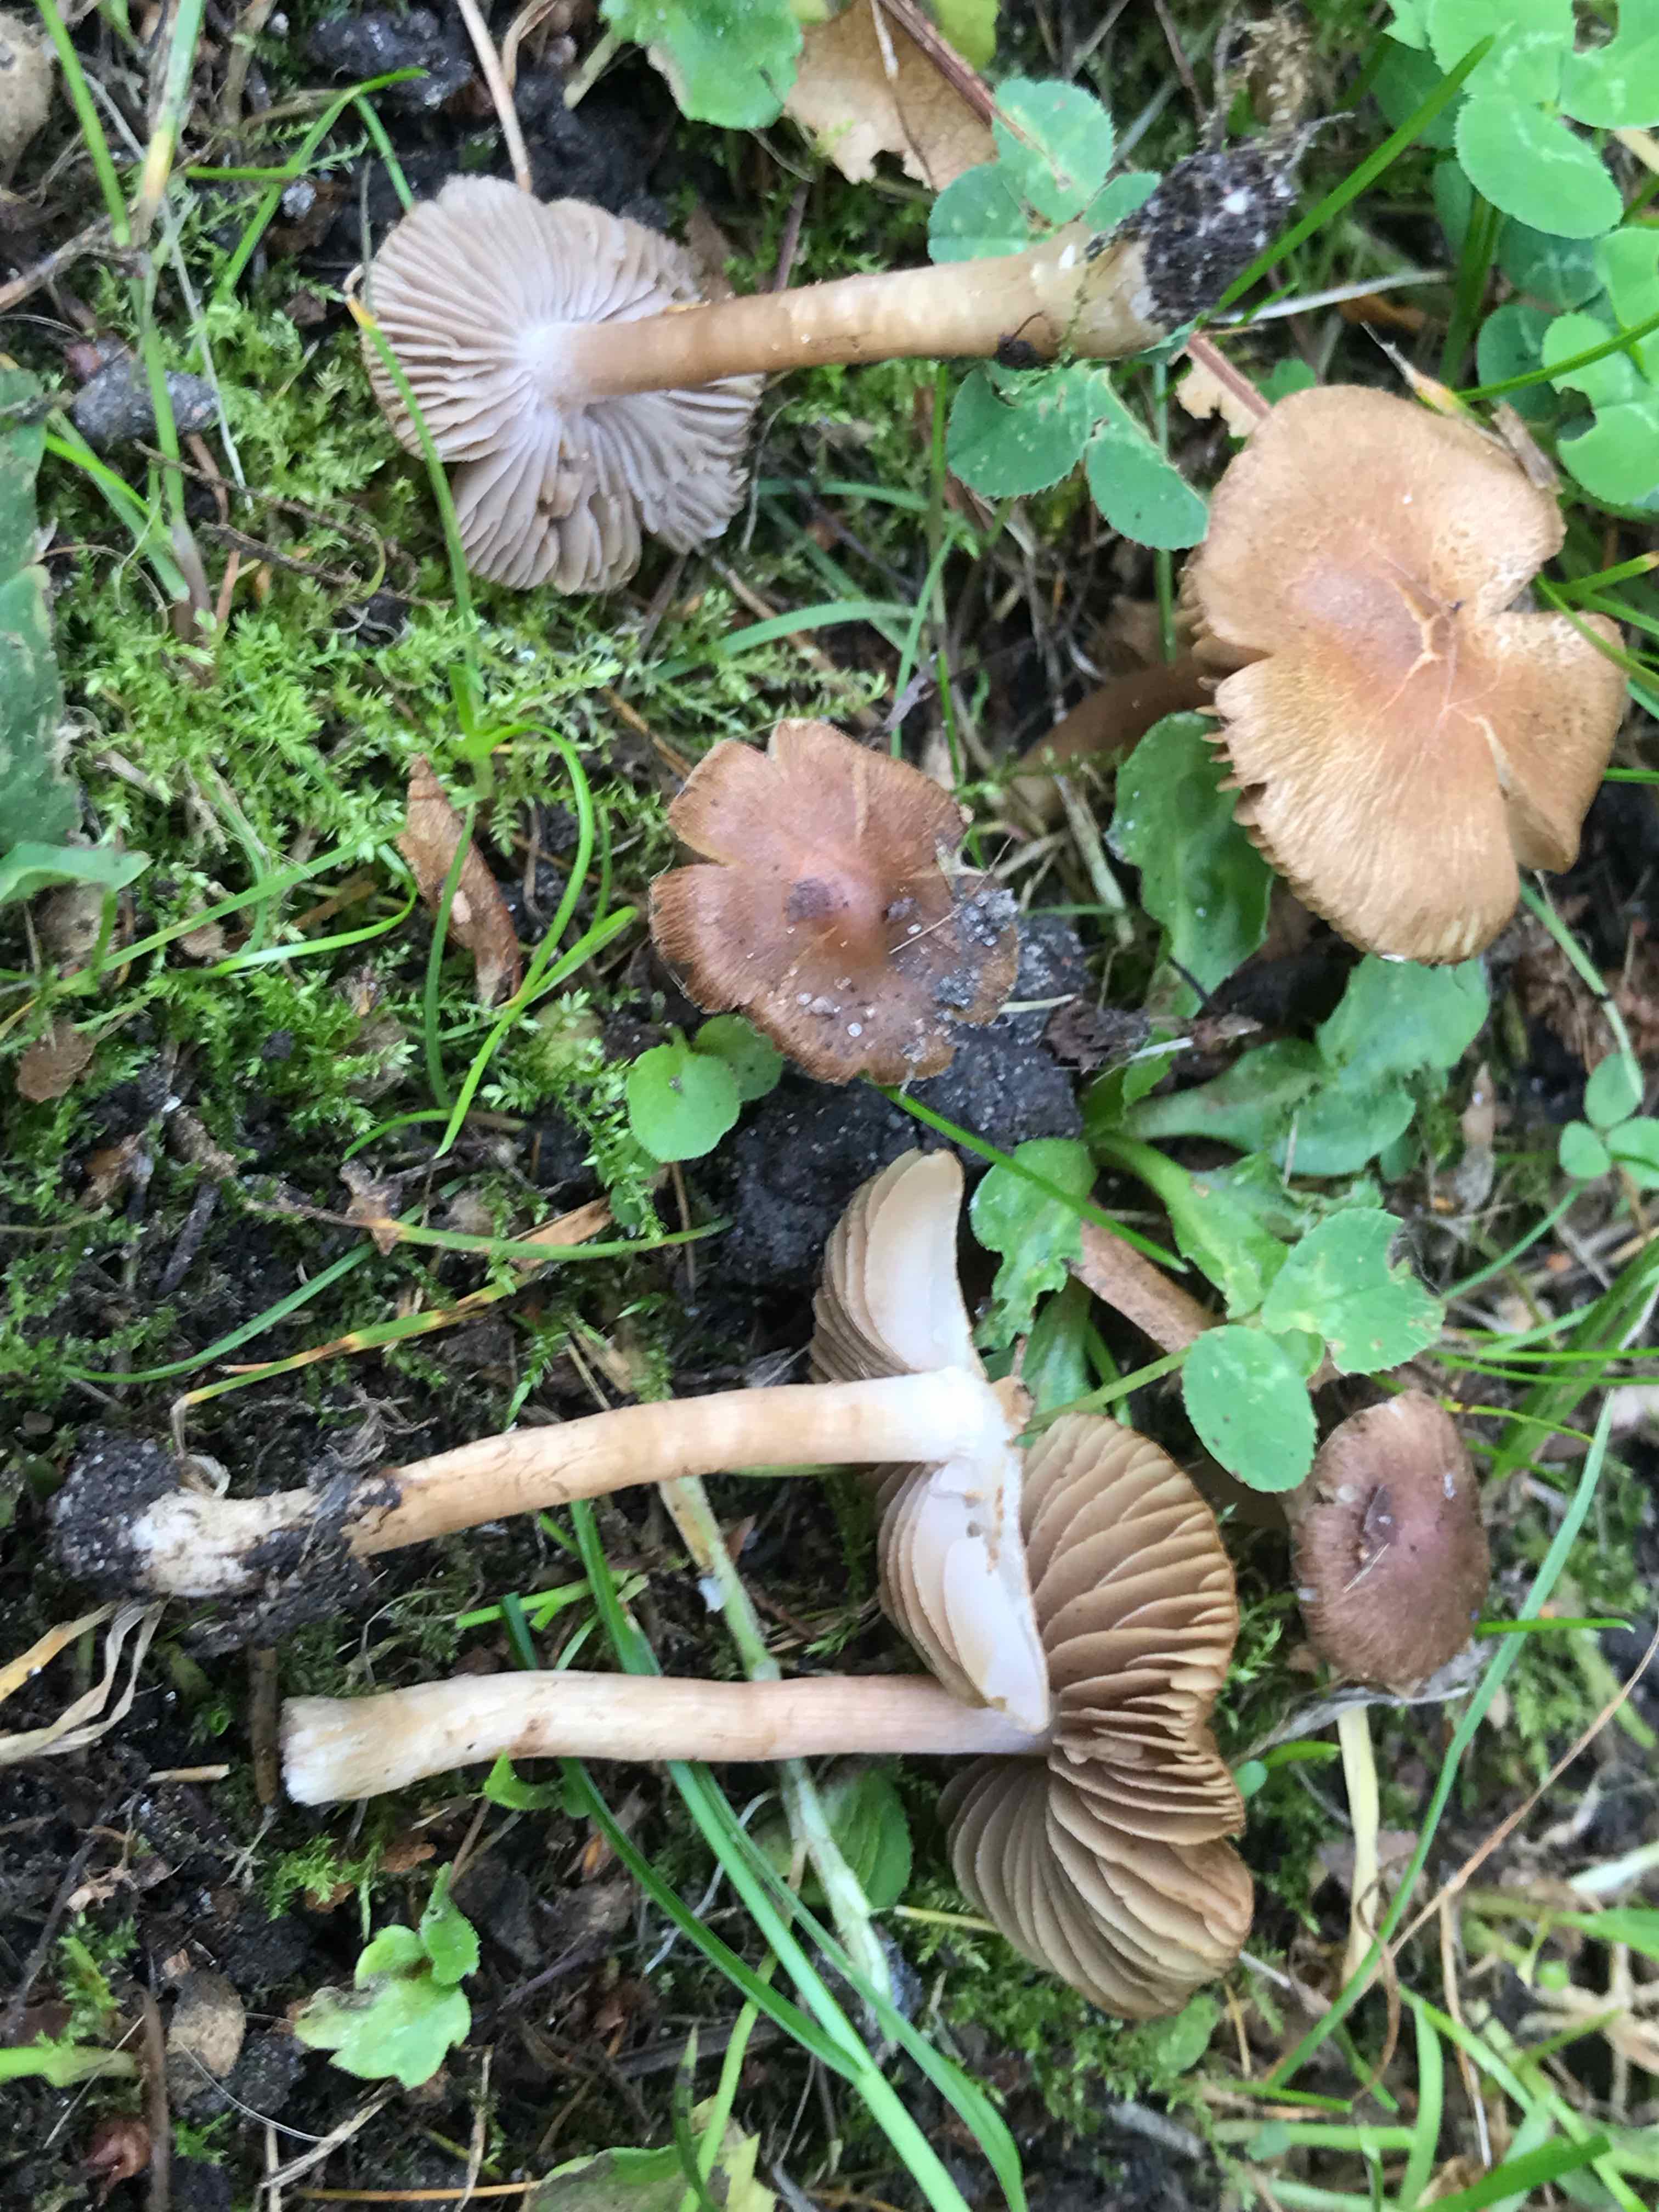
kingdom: Fungi
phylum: Basidiomycota
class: Agaricomycetes
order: Agaricales
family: Inocybaceae
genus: Inocybe
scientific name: Inocybe
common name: trævlhat
